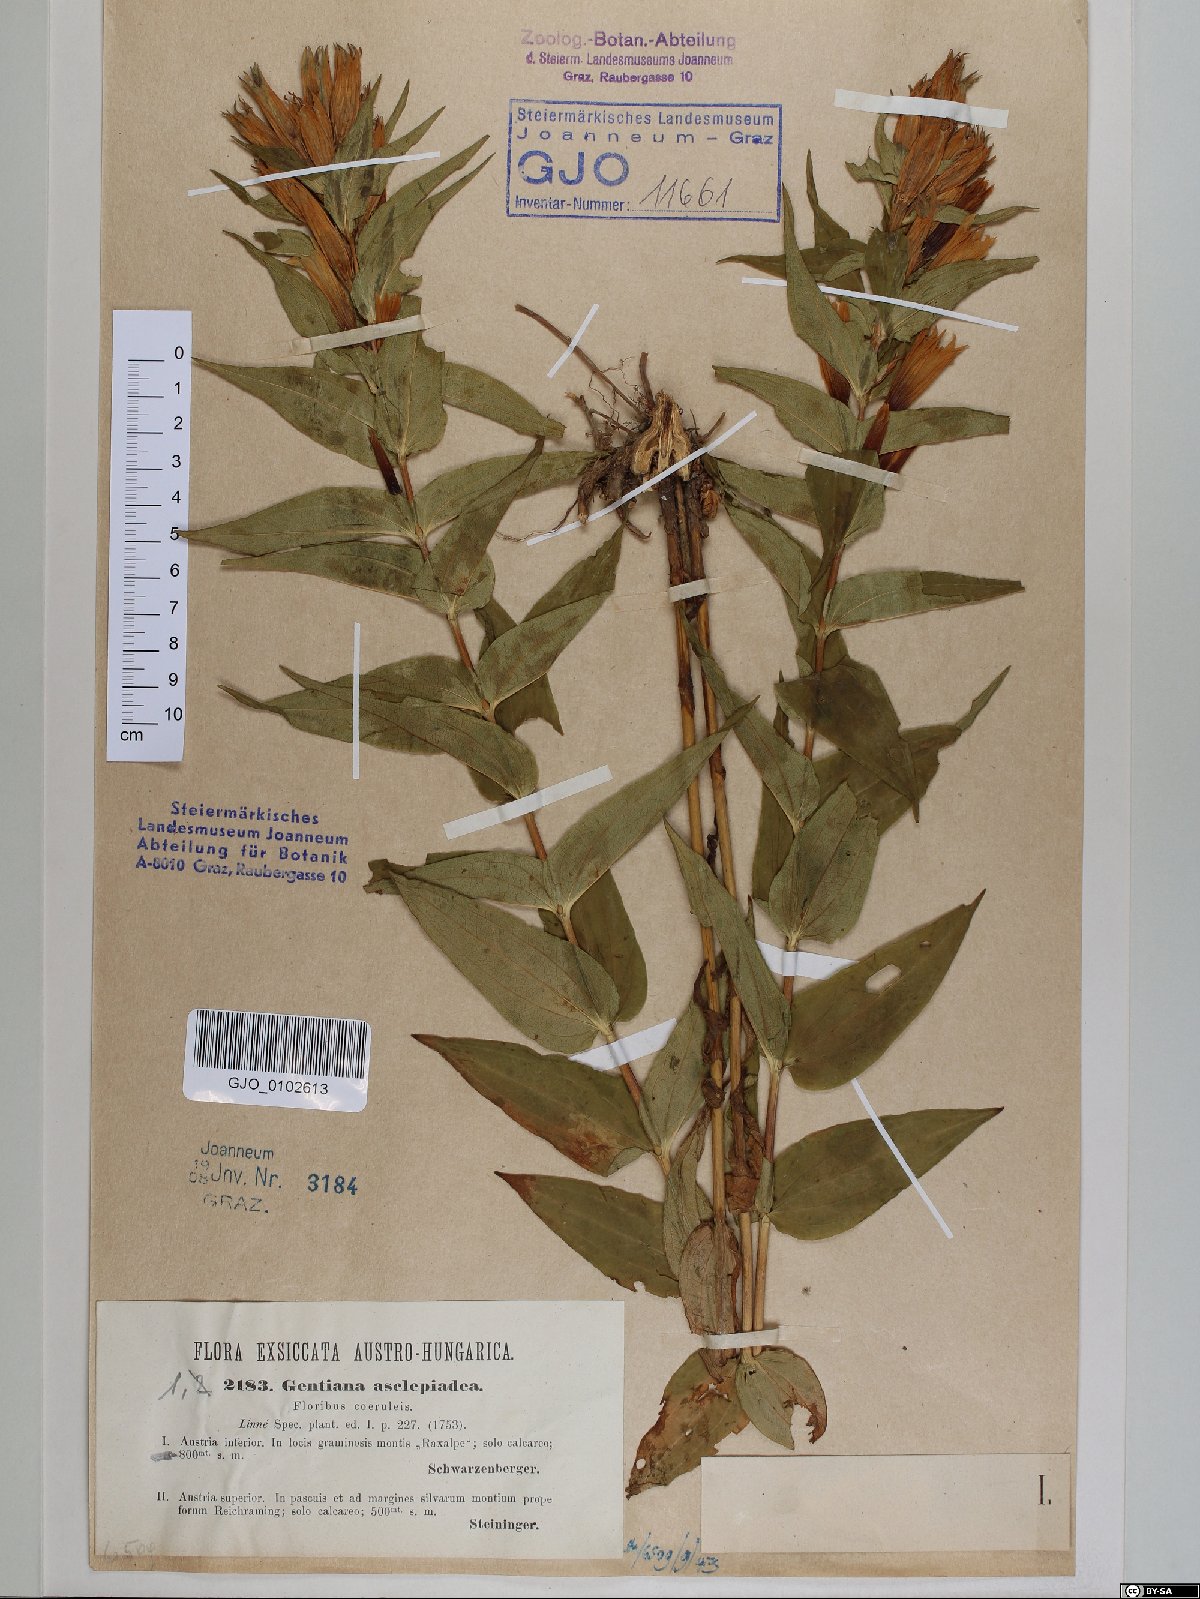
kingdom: Plantae
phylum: Tracheophyta
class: Magnoliopsida
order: Gentianales
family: Gentianaceae
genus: Gentiana
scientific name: Gentiana asclepiadea
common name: Willow gentian
